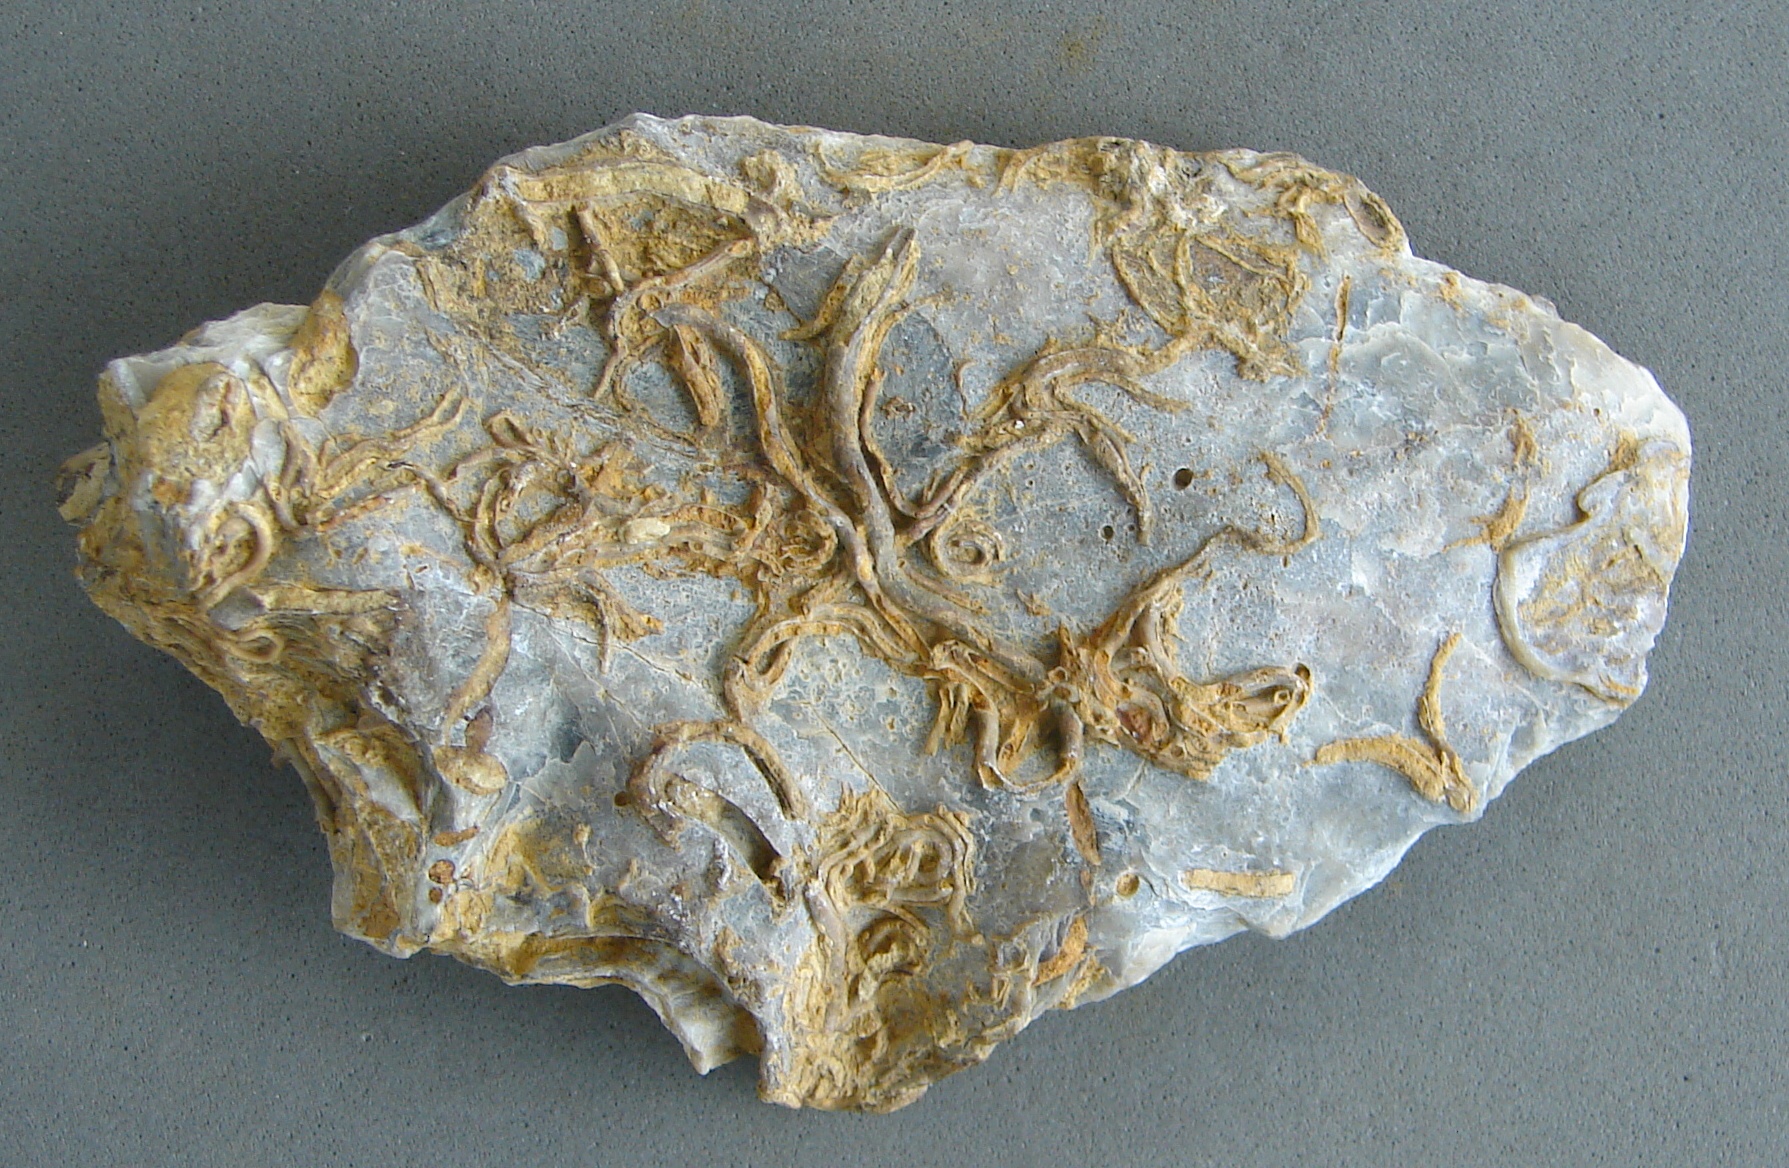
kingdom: Animalia
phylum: Annelida
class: Polychaeta
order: Sabellida
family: Serpulidae
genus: Serpula
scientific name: Serpula filaria
